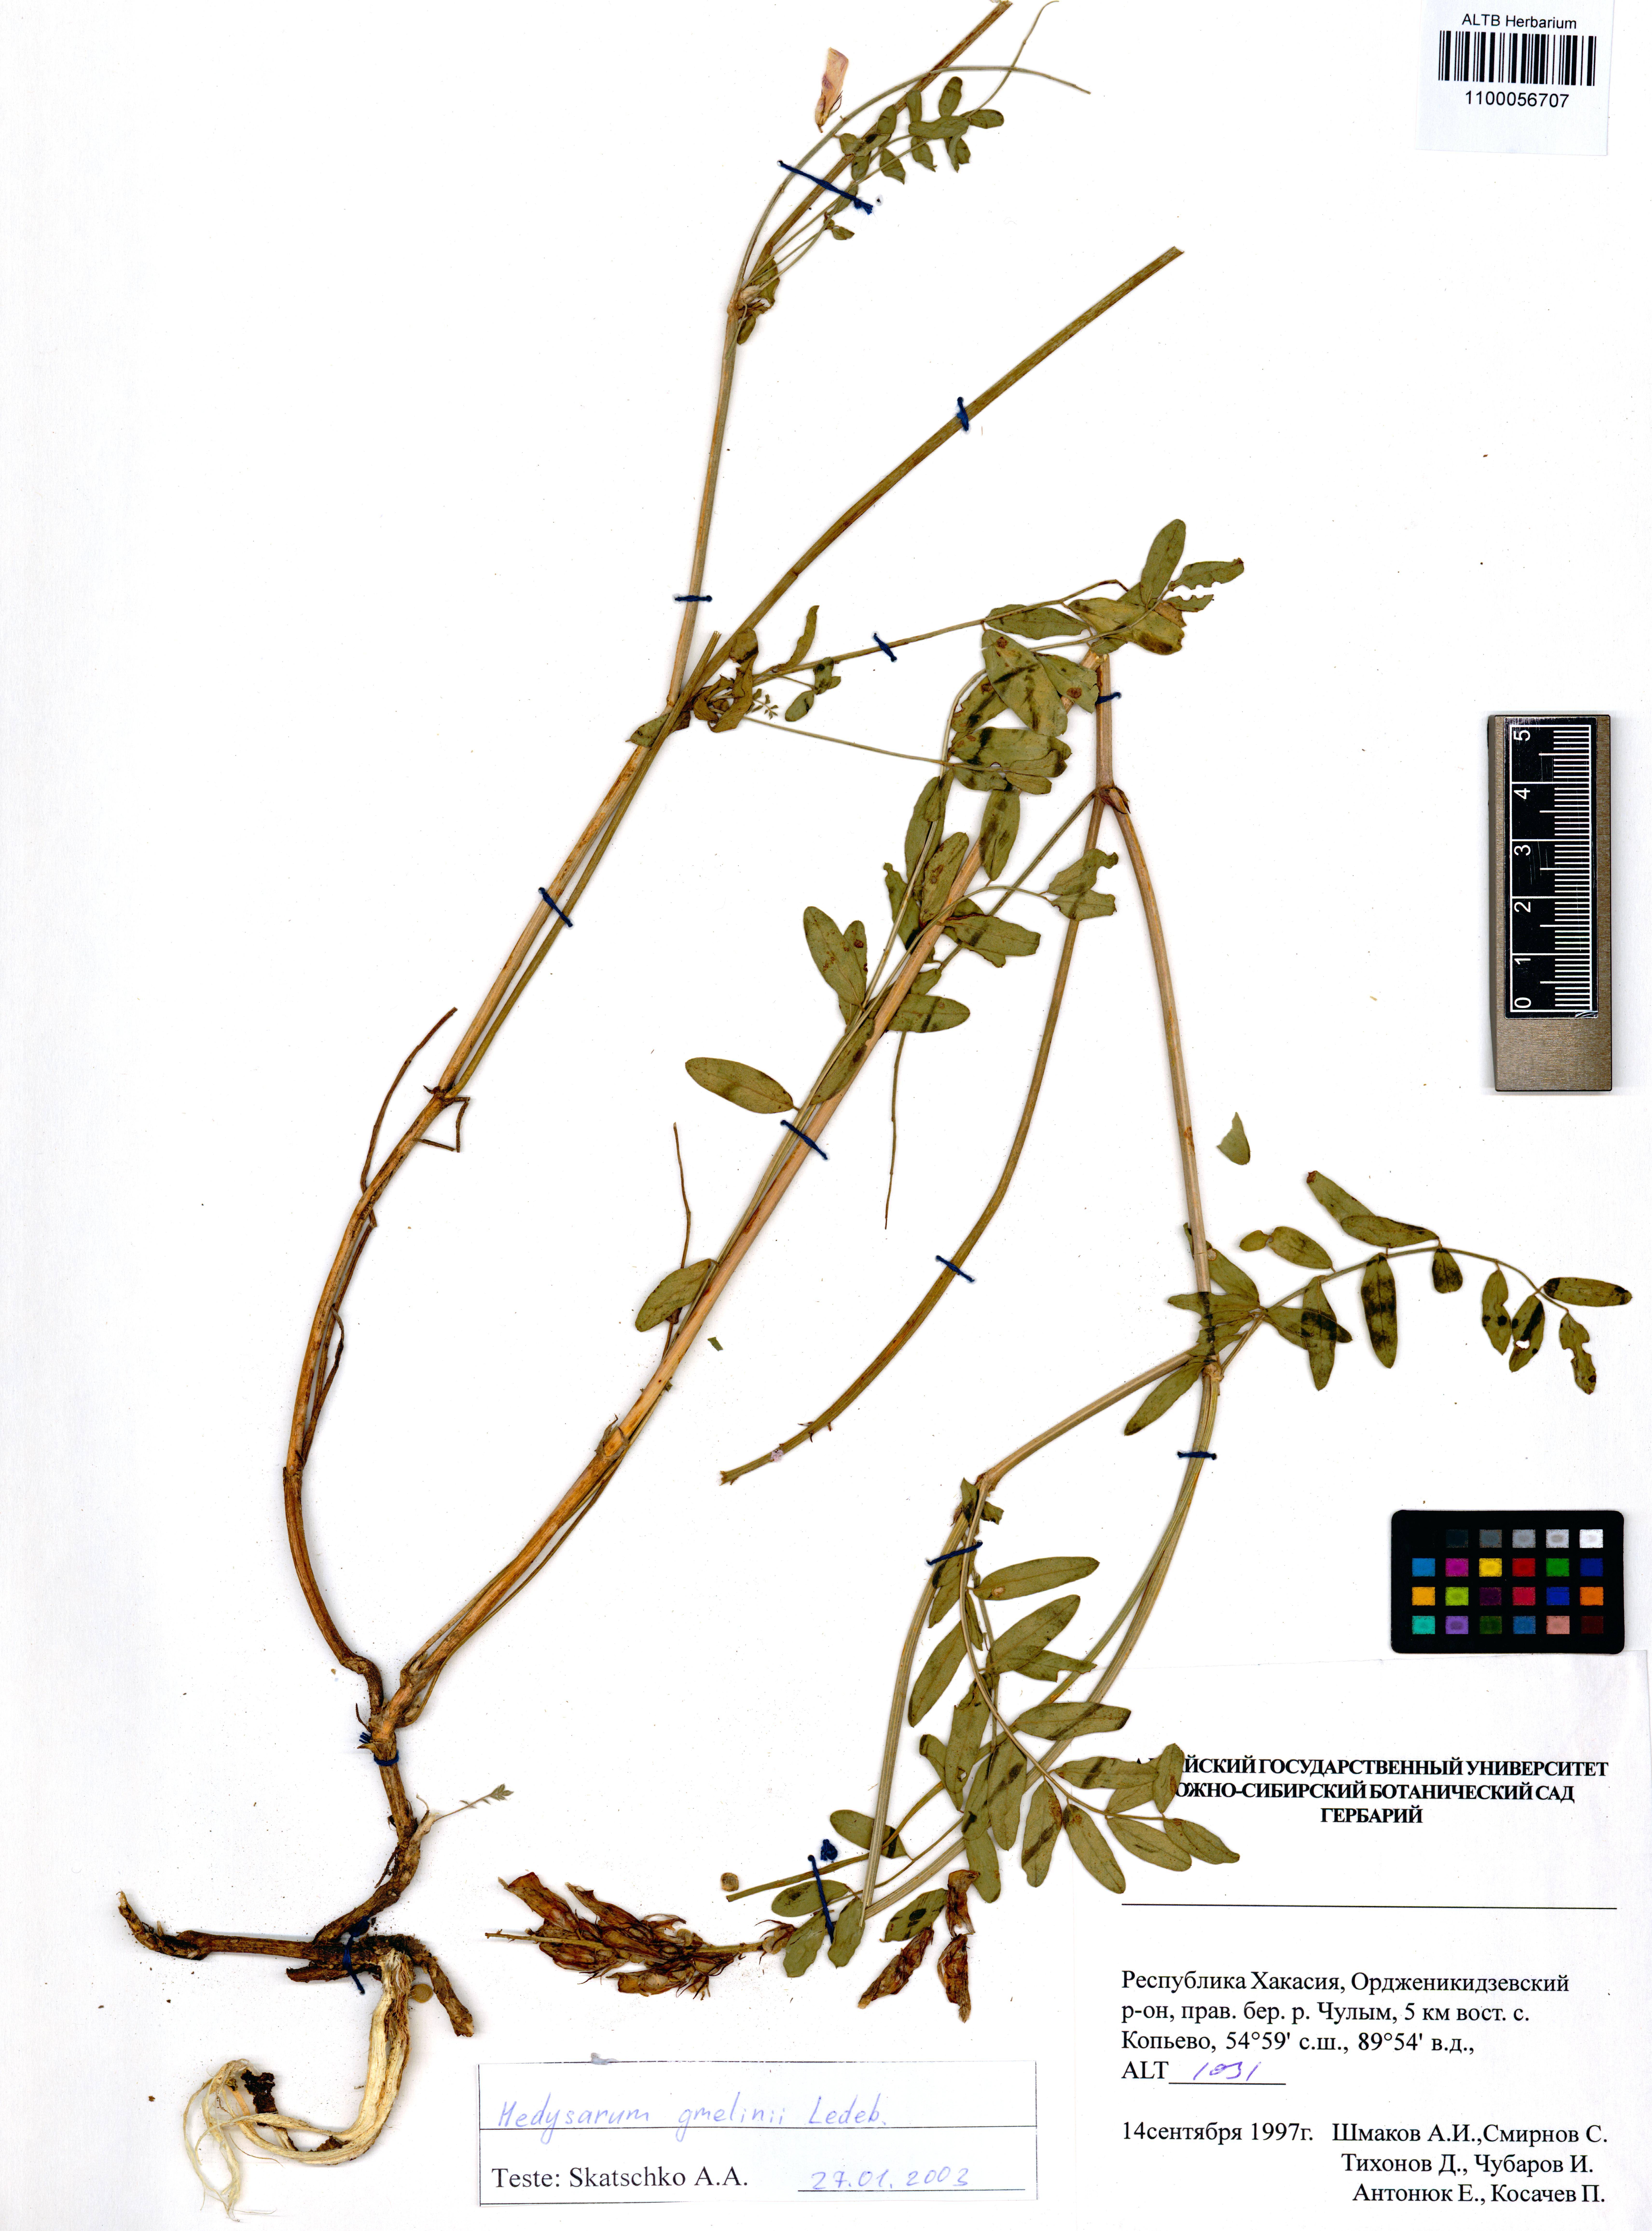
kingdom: Plantae
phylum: Tracheophyta
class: Magnoliopsida
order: Fabales
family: Fabaceae
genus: Hedysarum
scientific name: Hedysarum gmelinii
